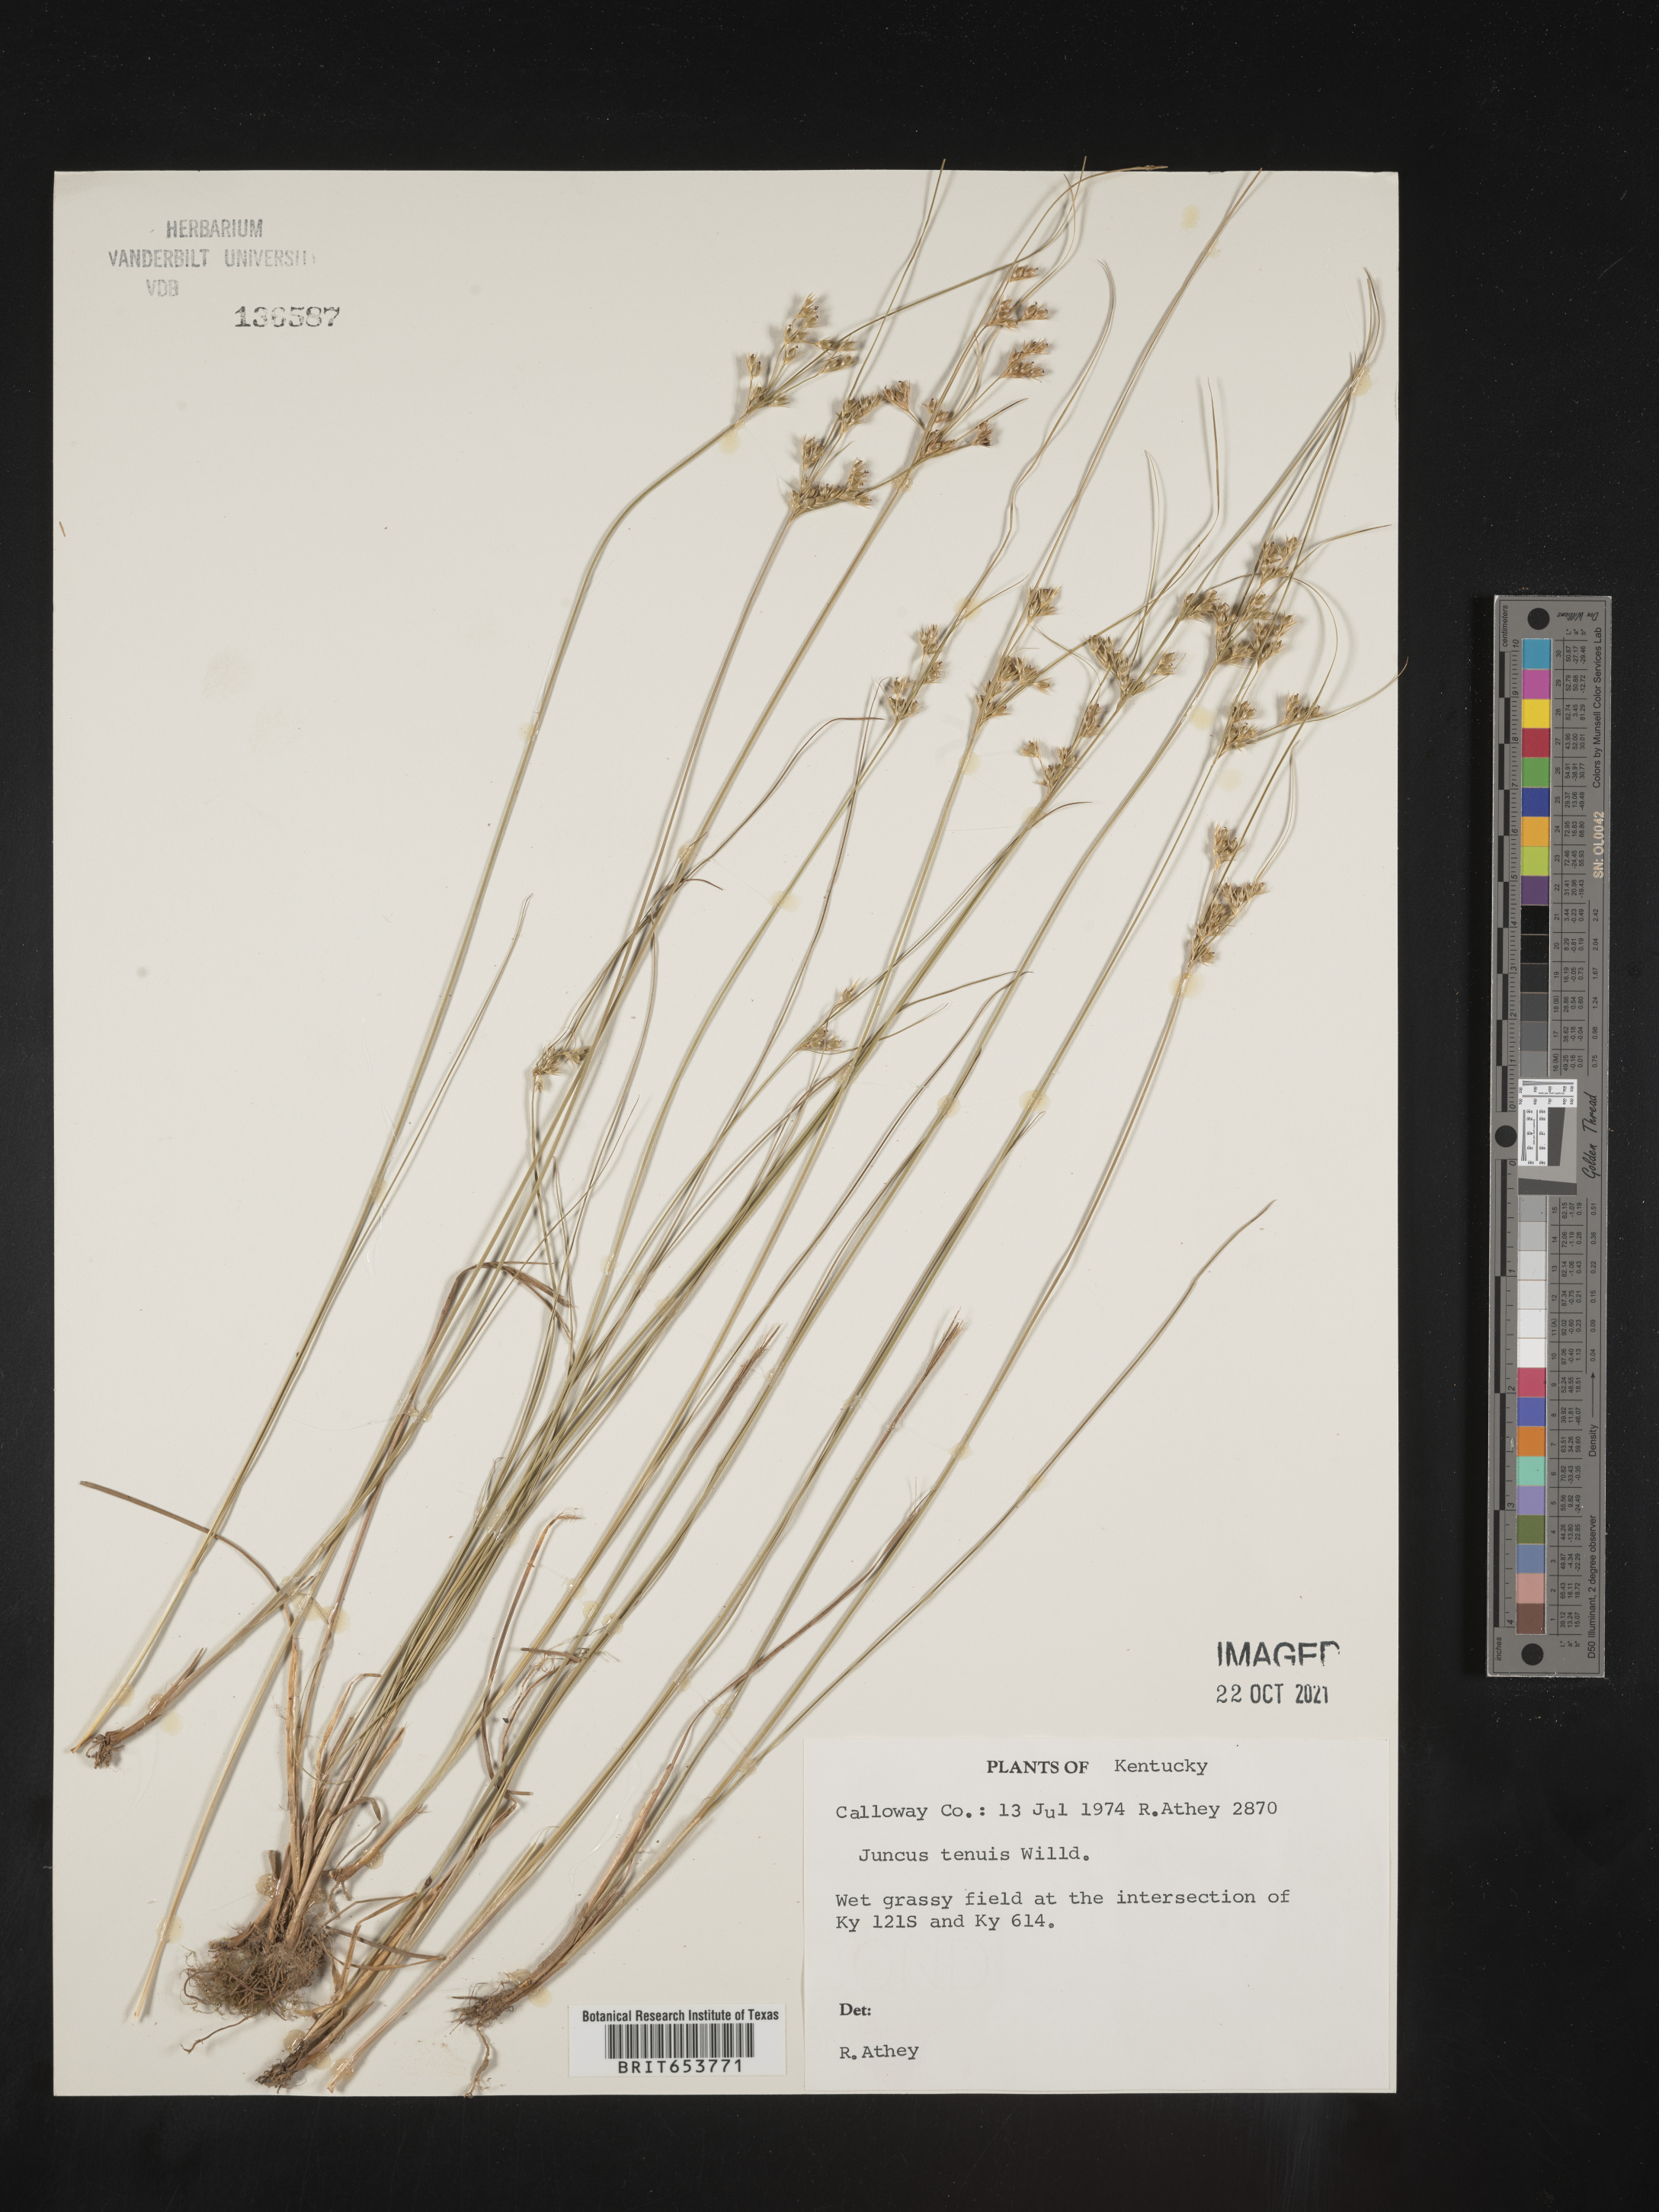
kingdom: Plantae
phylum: Tracheophyta
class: Liliopsida
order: Poales
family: Juncaceae
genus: Juncus
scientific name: Juncus tenuis
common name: Slender rush
